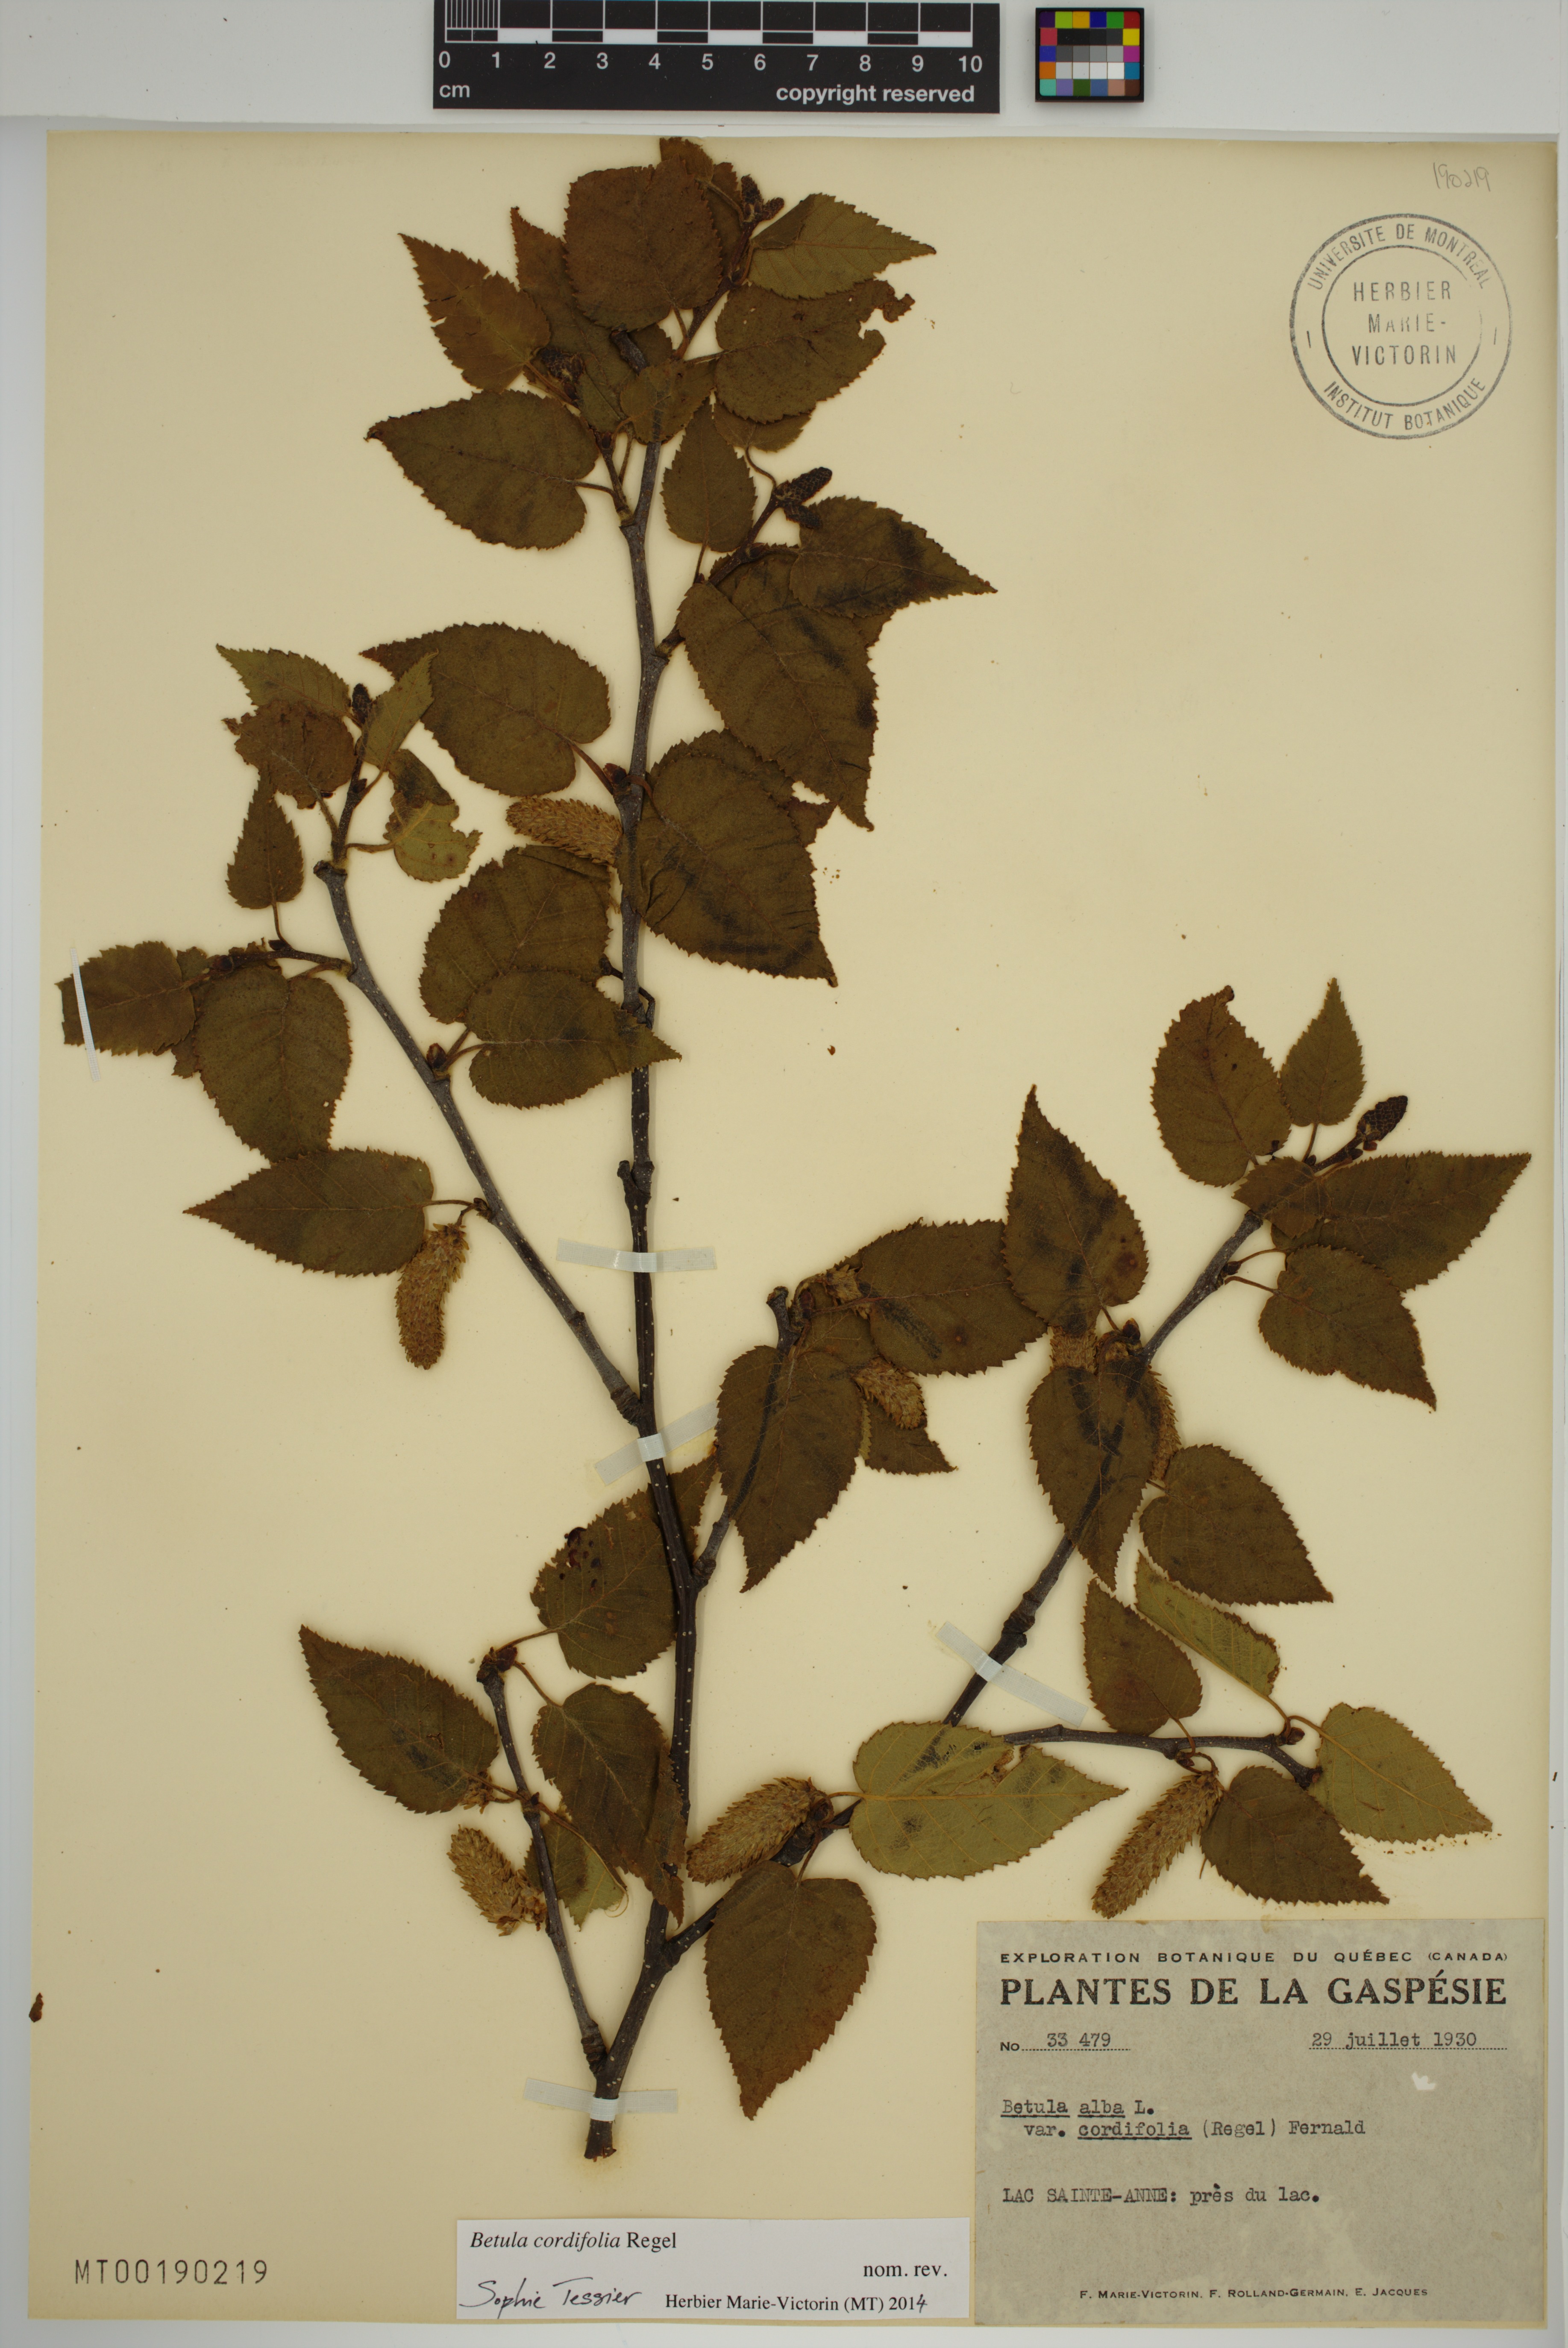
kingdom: Plantae
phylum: Tracheophyta
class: Magnoliopsida
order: Fagales
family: Betulaceae
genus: Betula
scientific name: Betula cordifolia
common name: Mountain white birch
